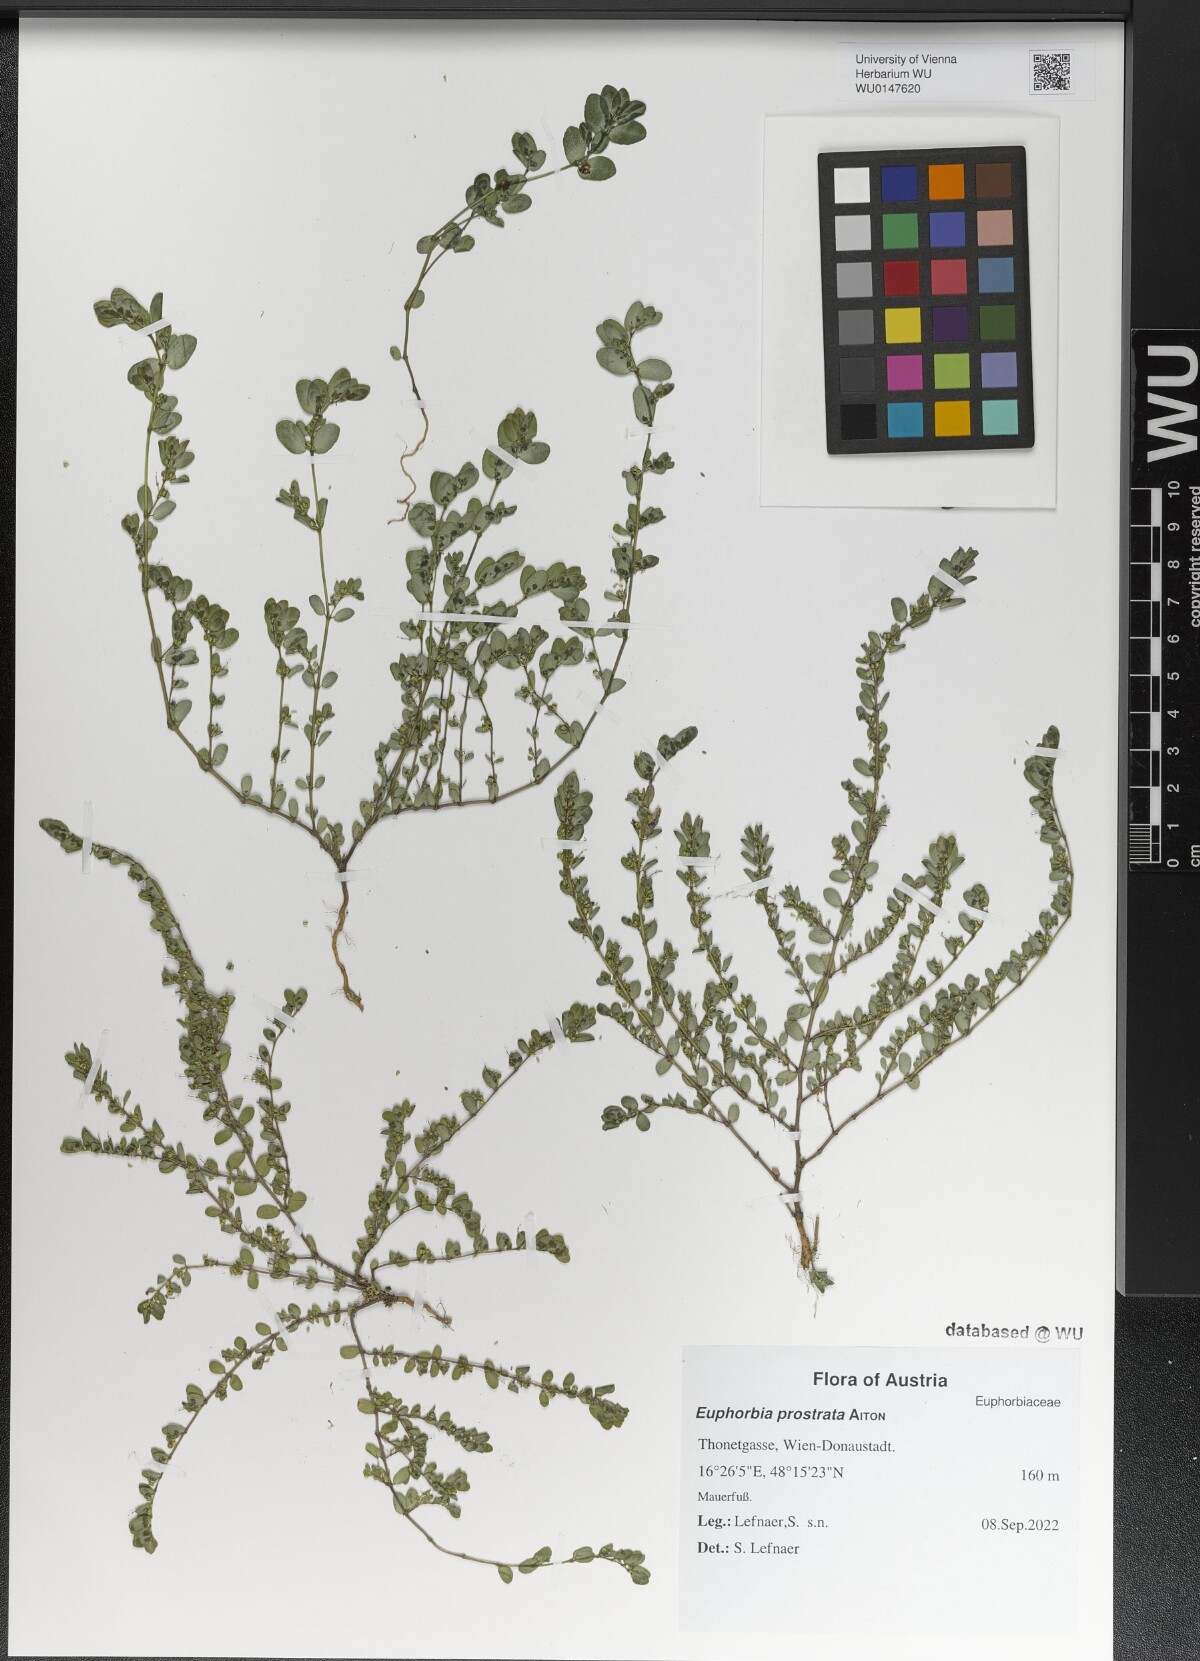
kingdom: Plantae
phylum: Tracheophyta
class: Magnoliopsida
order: Malpighiales
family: Euphorbiaceae
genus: Euphorbia
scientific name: Euphorbia prostrata
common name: Prostrate sandmat
